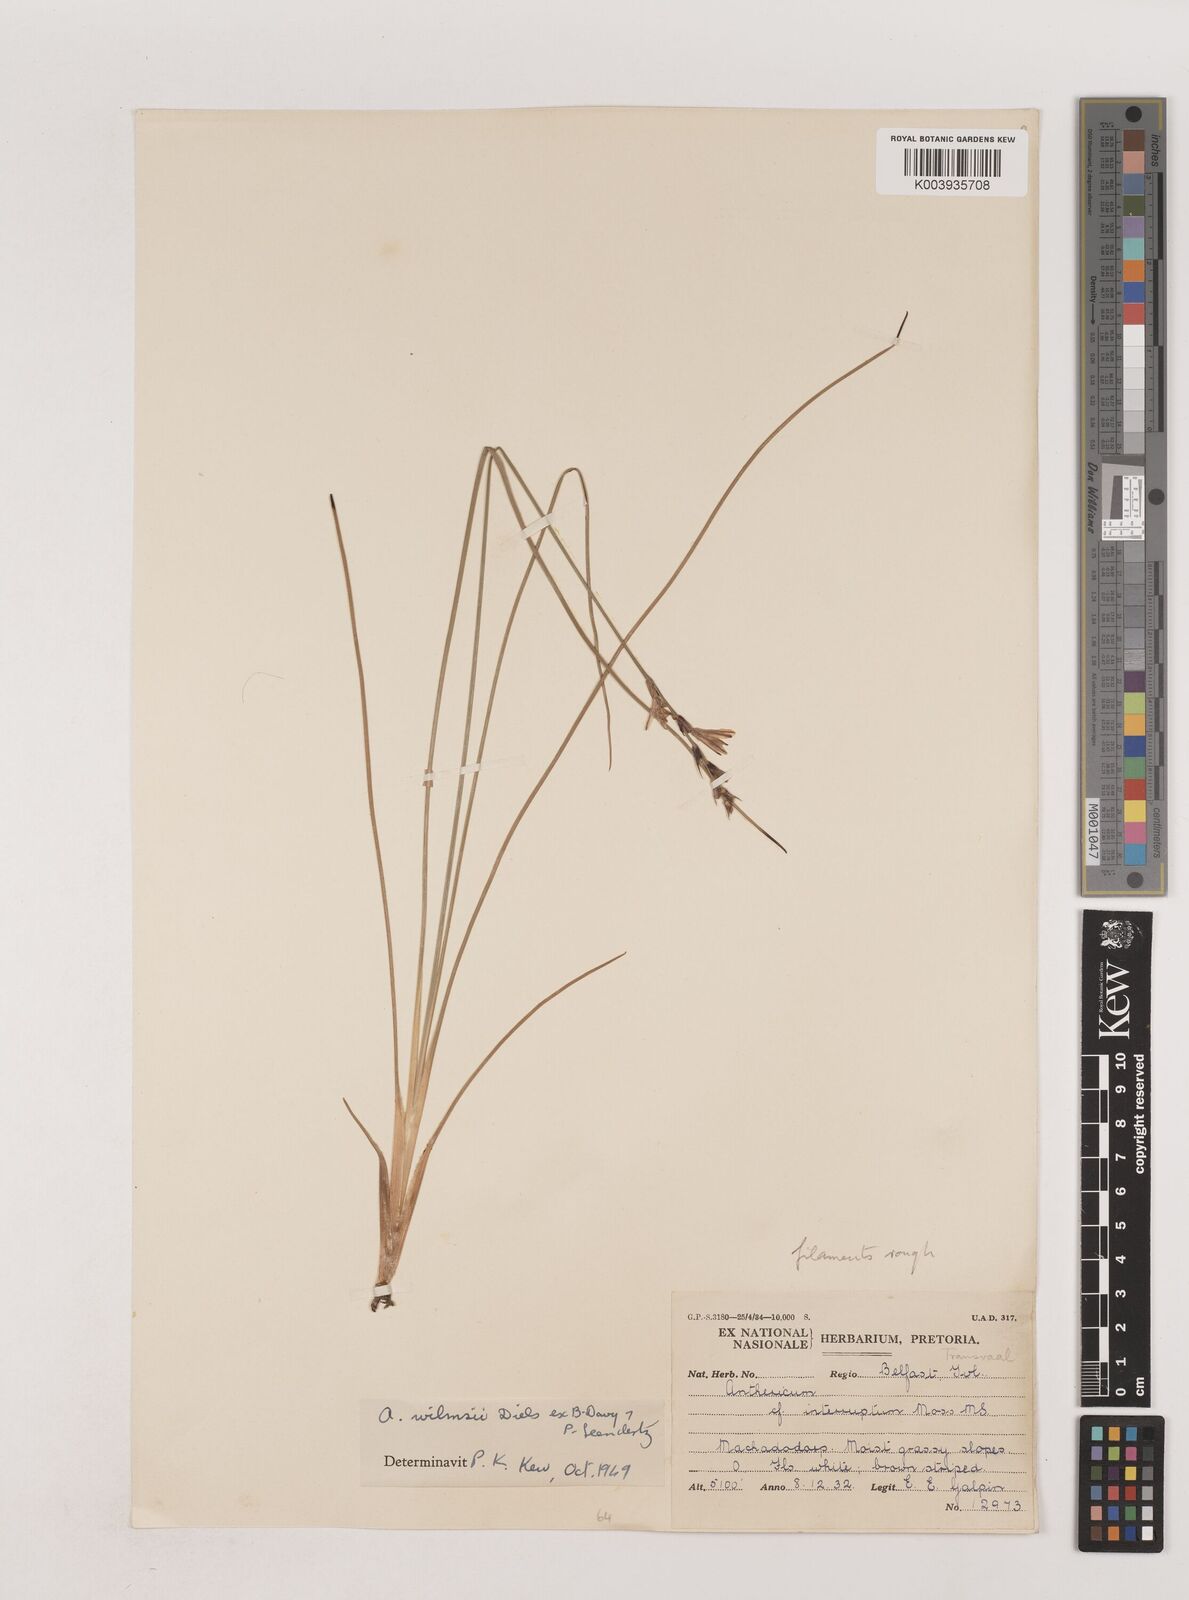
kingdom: Plantae
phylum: Tracheophyta
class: Liliopsida
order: Asparagales
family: Asparagaceae
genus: Chlorophytum
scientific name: Chlorophytum fasciculatum
